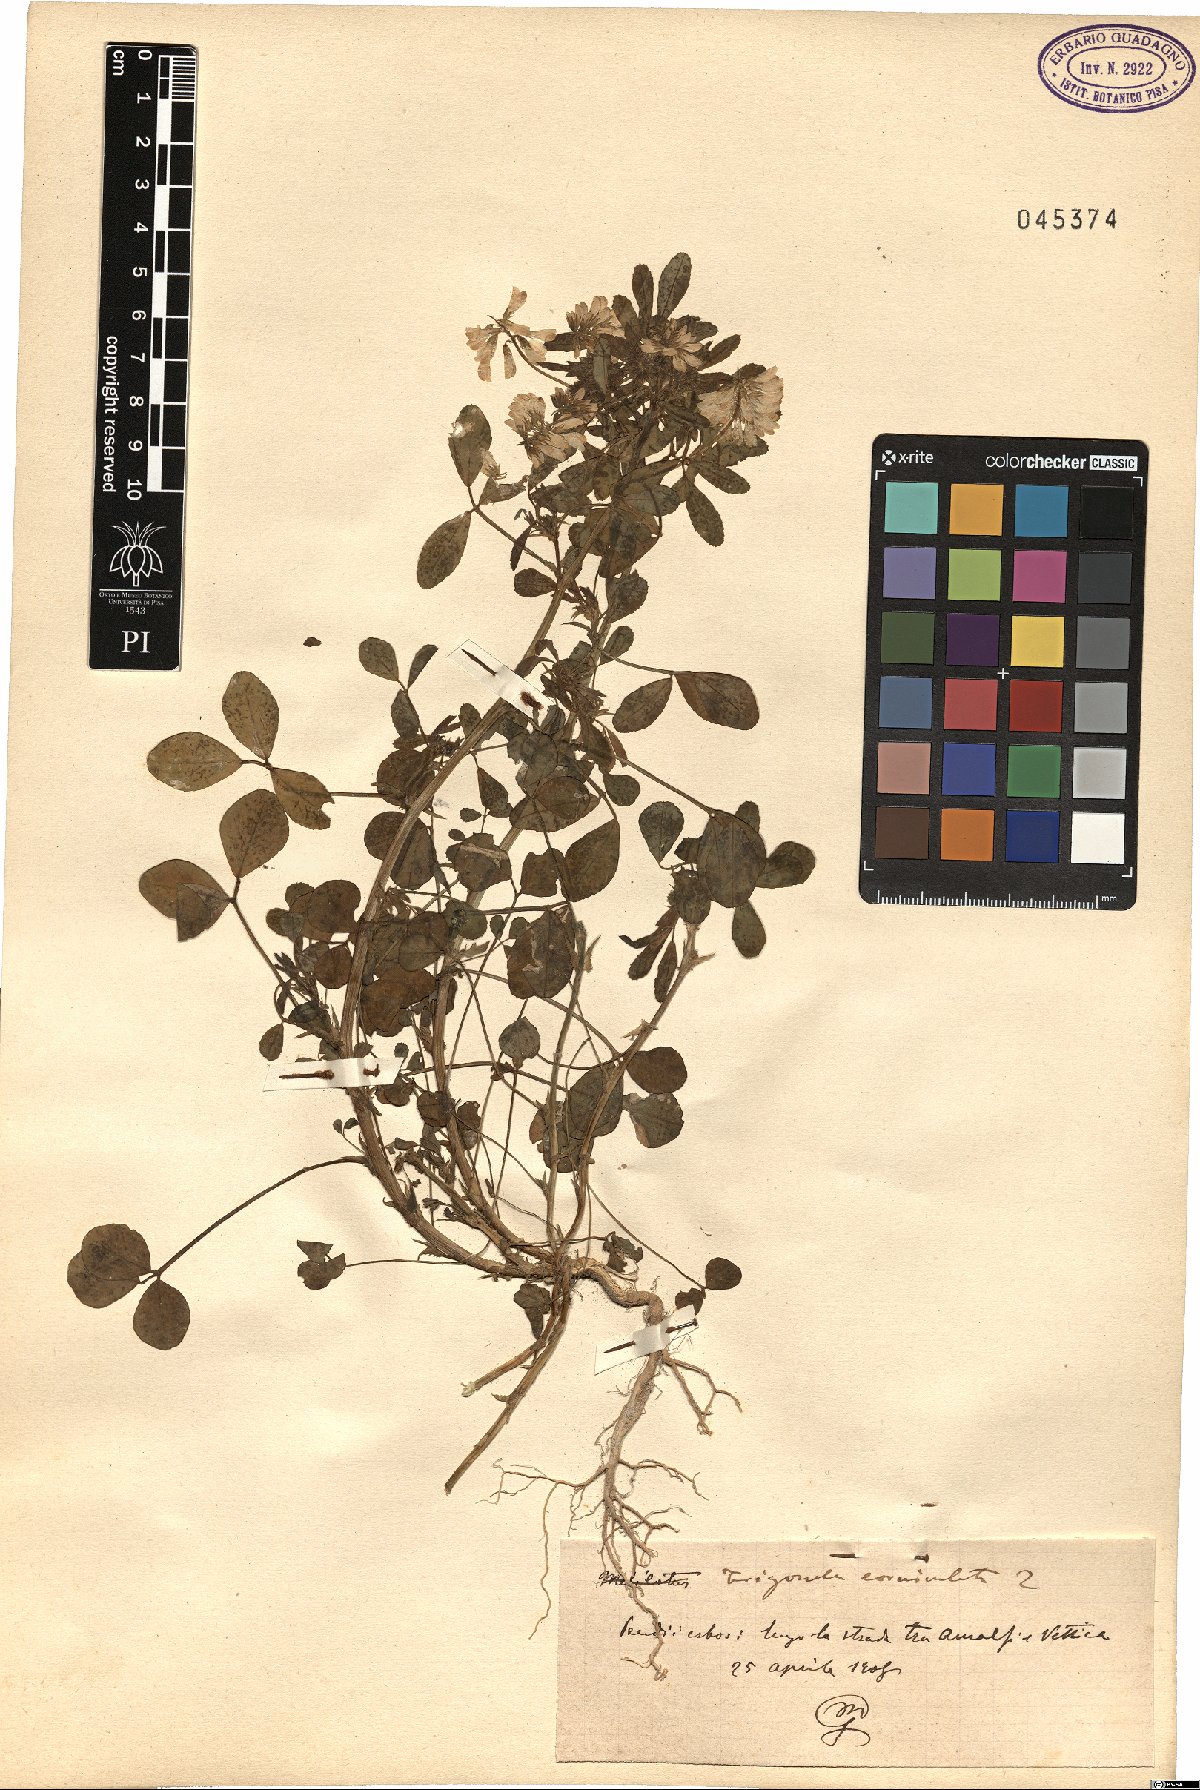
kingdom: Plantae
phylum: Tracheophyta
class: Magnoliopsida
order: Fabales
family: Fabaceae
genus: Trigonella
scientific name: Trigonella balansae
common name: Sickle-fruited fenugreek
